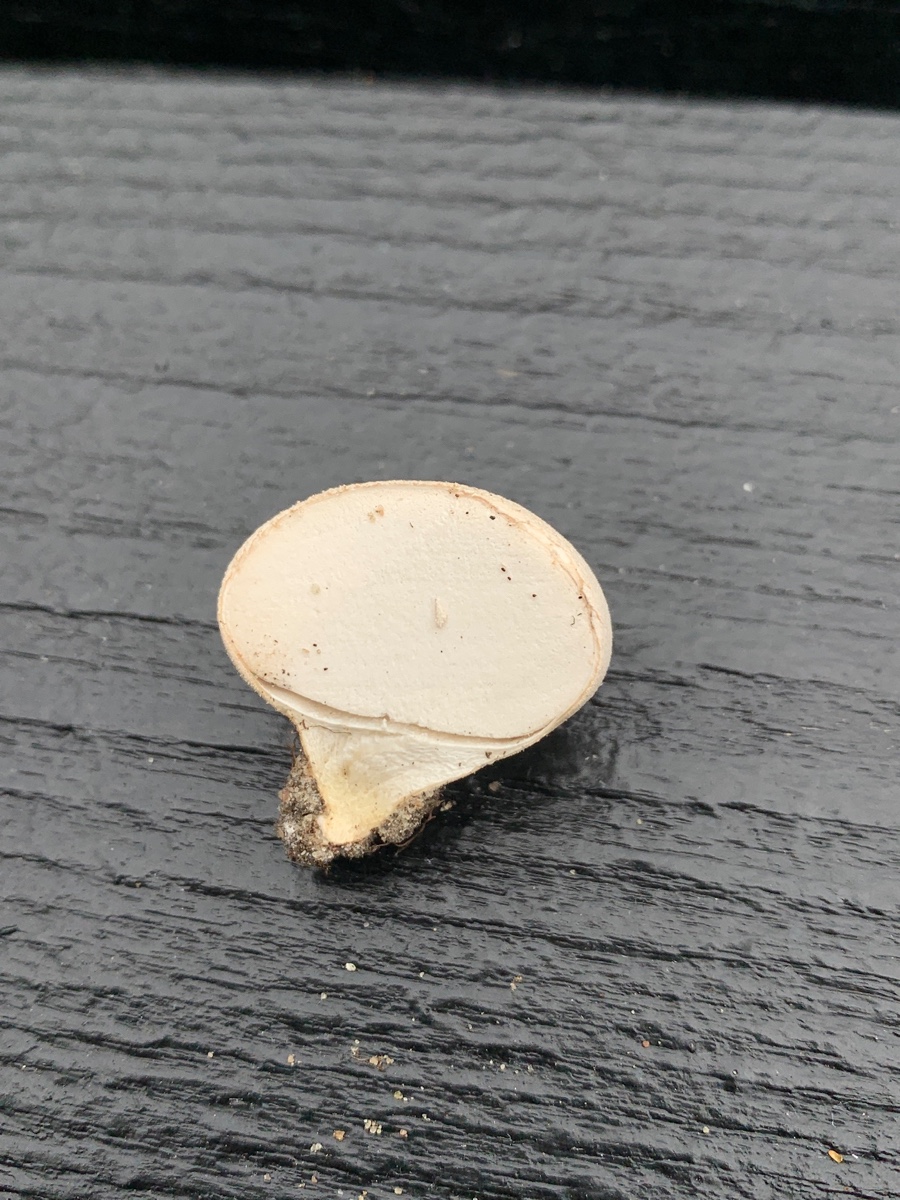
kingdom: Fungi
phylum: Basidiomycota
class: Agaricomycetes
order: Agaricales
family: Lycoperdaceae
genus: Lycoperdon
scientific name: Lycoperdon pratense
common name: flad støvbold
